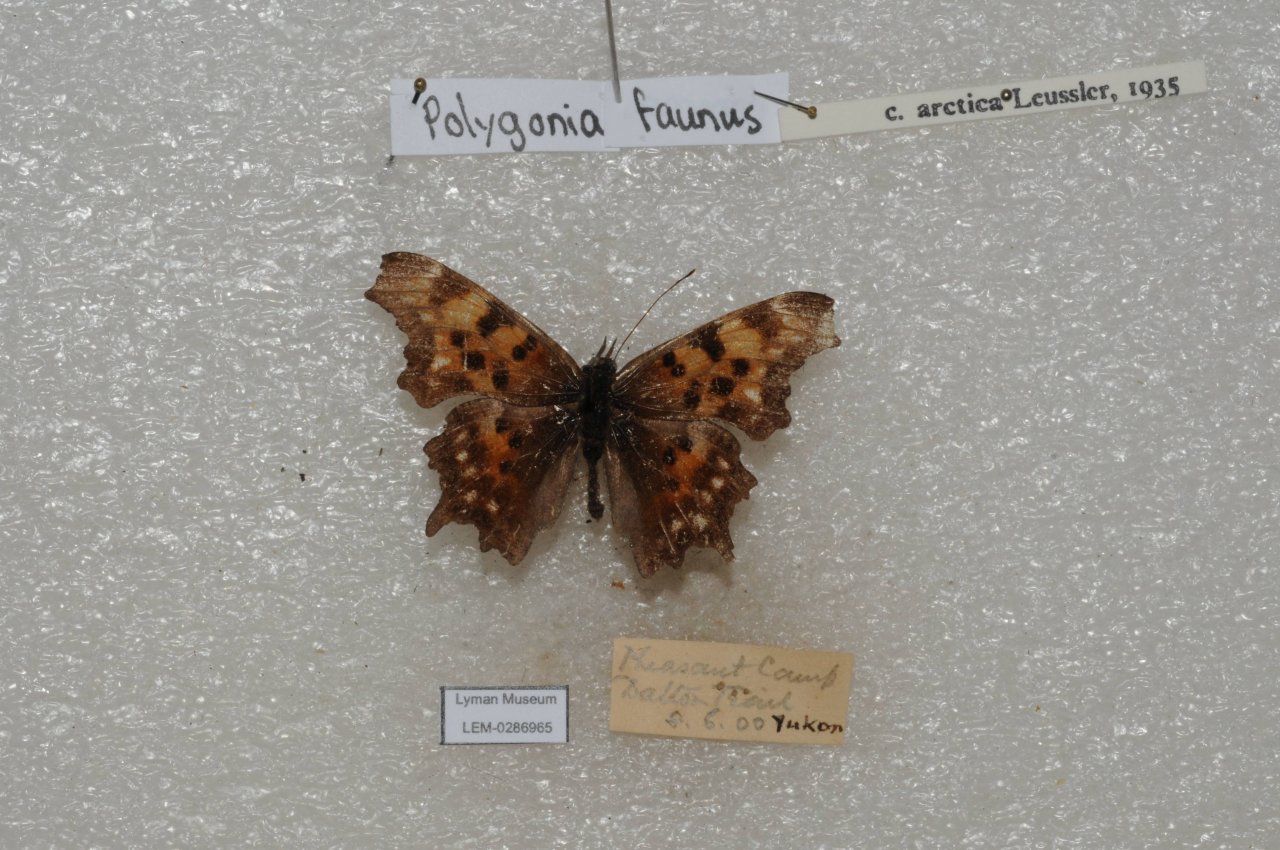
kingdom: Animalia
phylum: Arthropoda
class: Insecta
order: Lepidoptera
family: Nymphalidae
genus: Polygonia
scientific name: Polygonia faunus
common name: Green Comma
